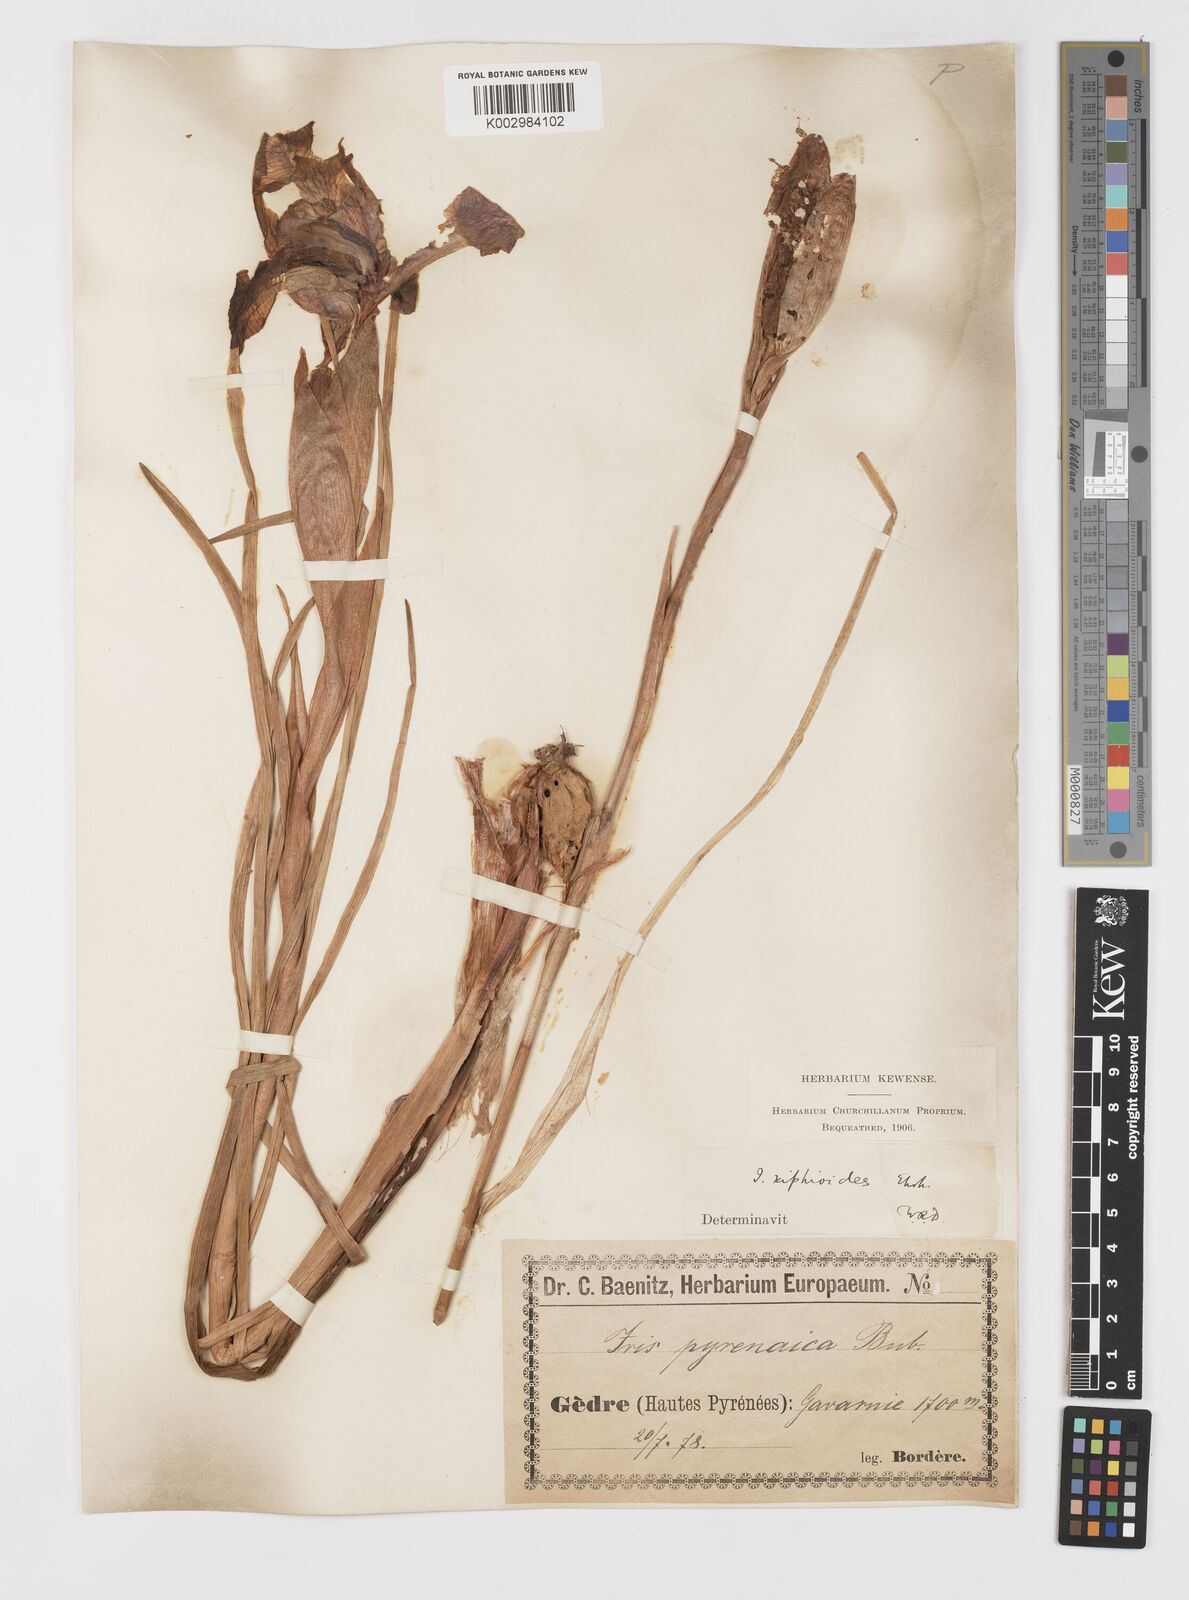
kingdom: Plantae
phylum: Tracheophyta
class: Liliopsida
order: Asparagales
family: Iridaceae
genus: Iris
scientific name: Iris jacquinii
